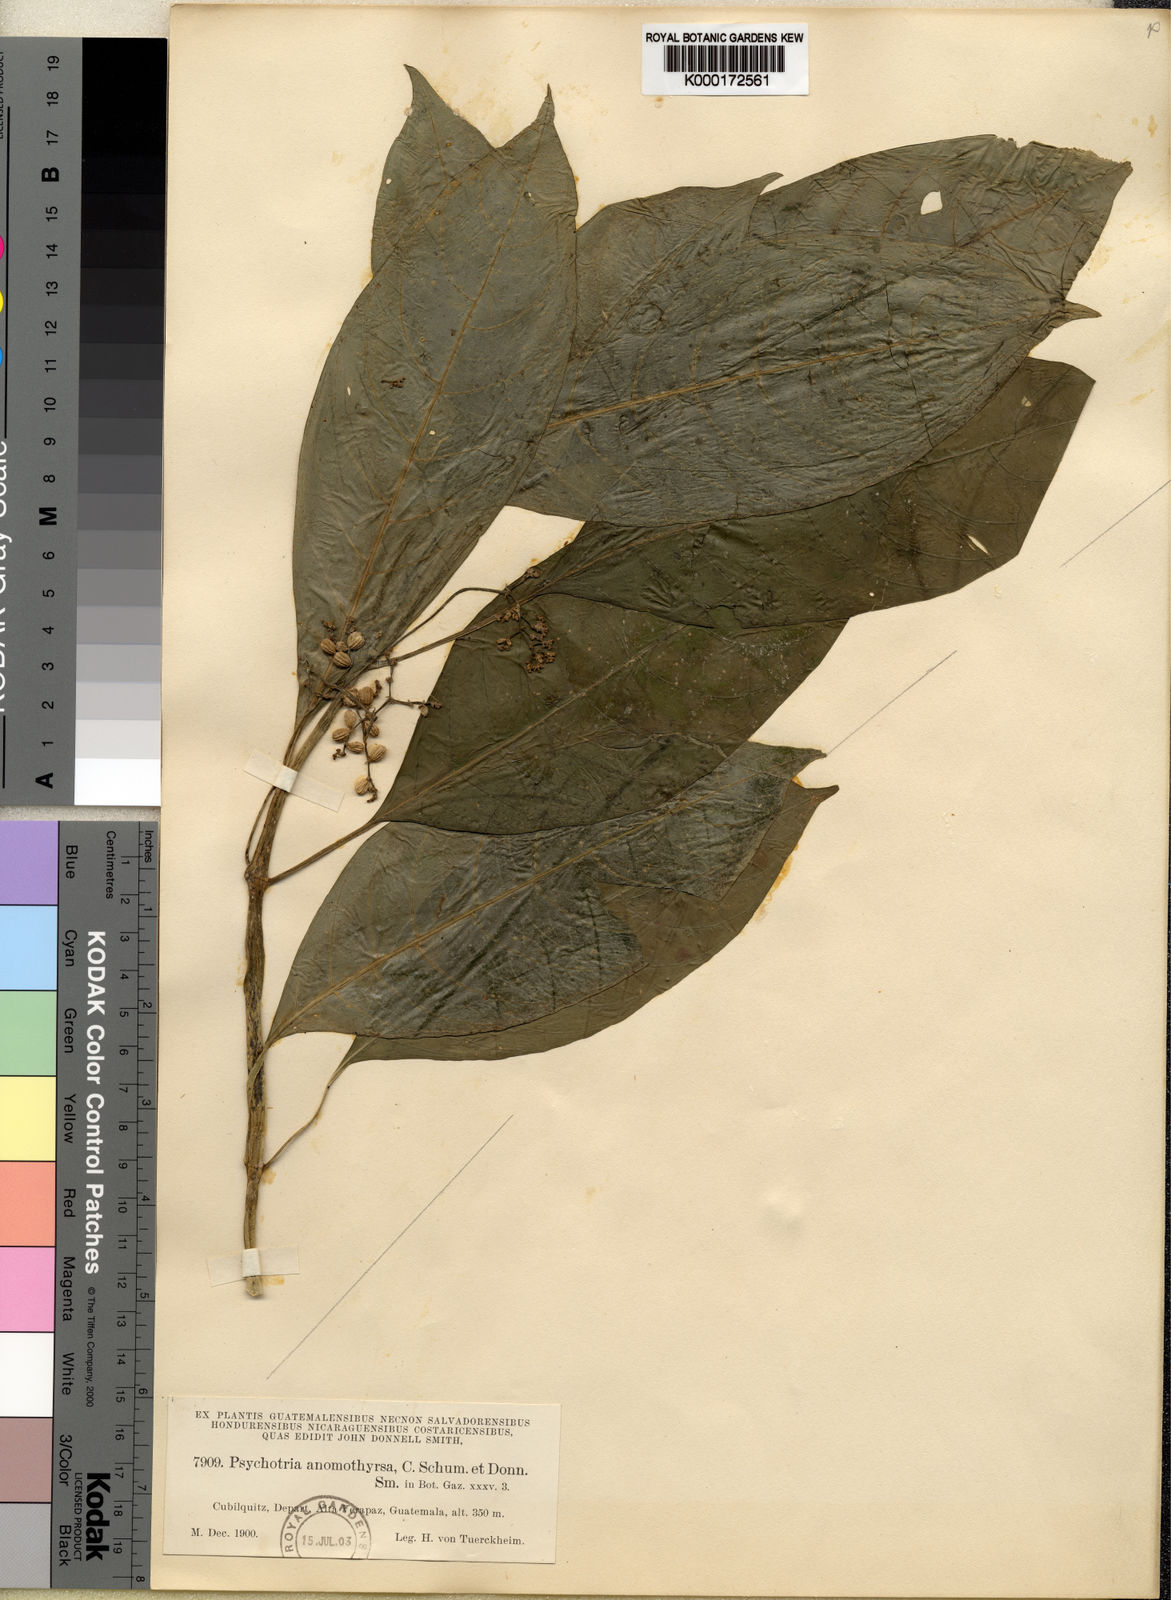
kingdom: Plantae
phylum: Tracheophyta
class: Magnoliopsida
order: Gentianales
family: Rubiaceae
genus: Notopleura
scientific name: Notopleura
